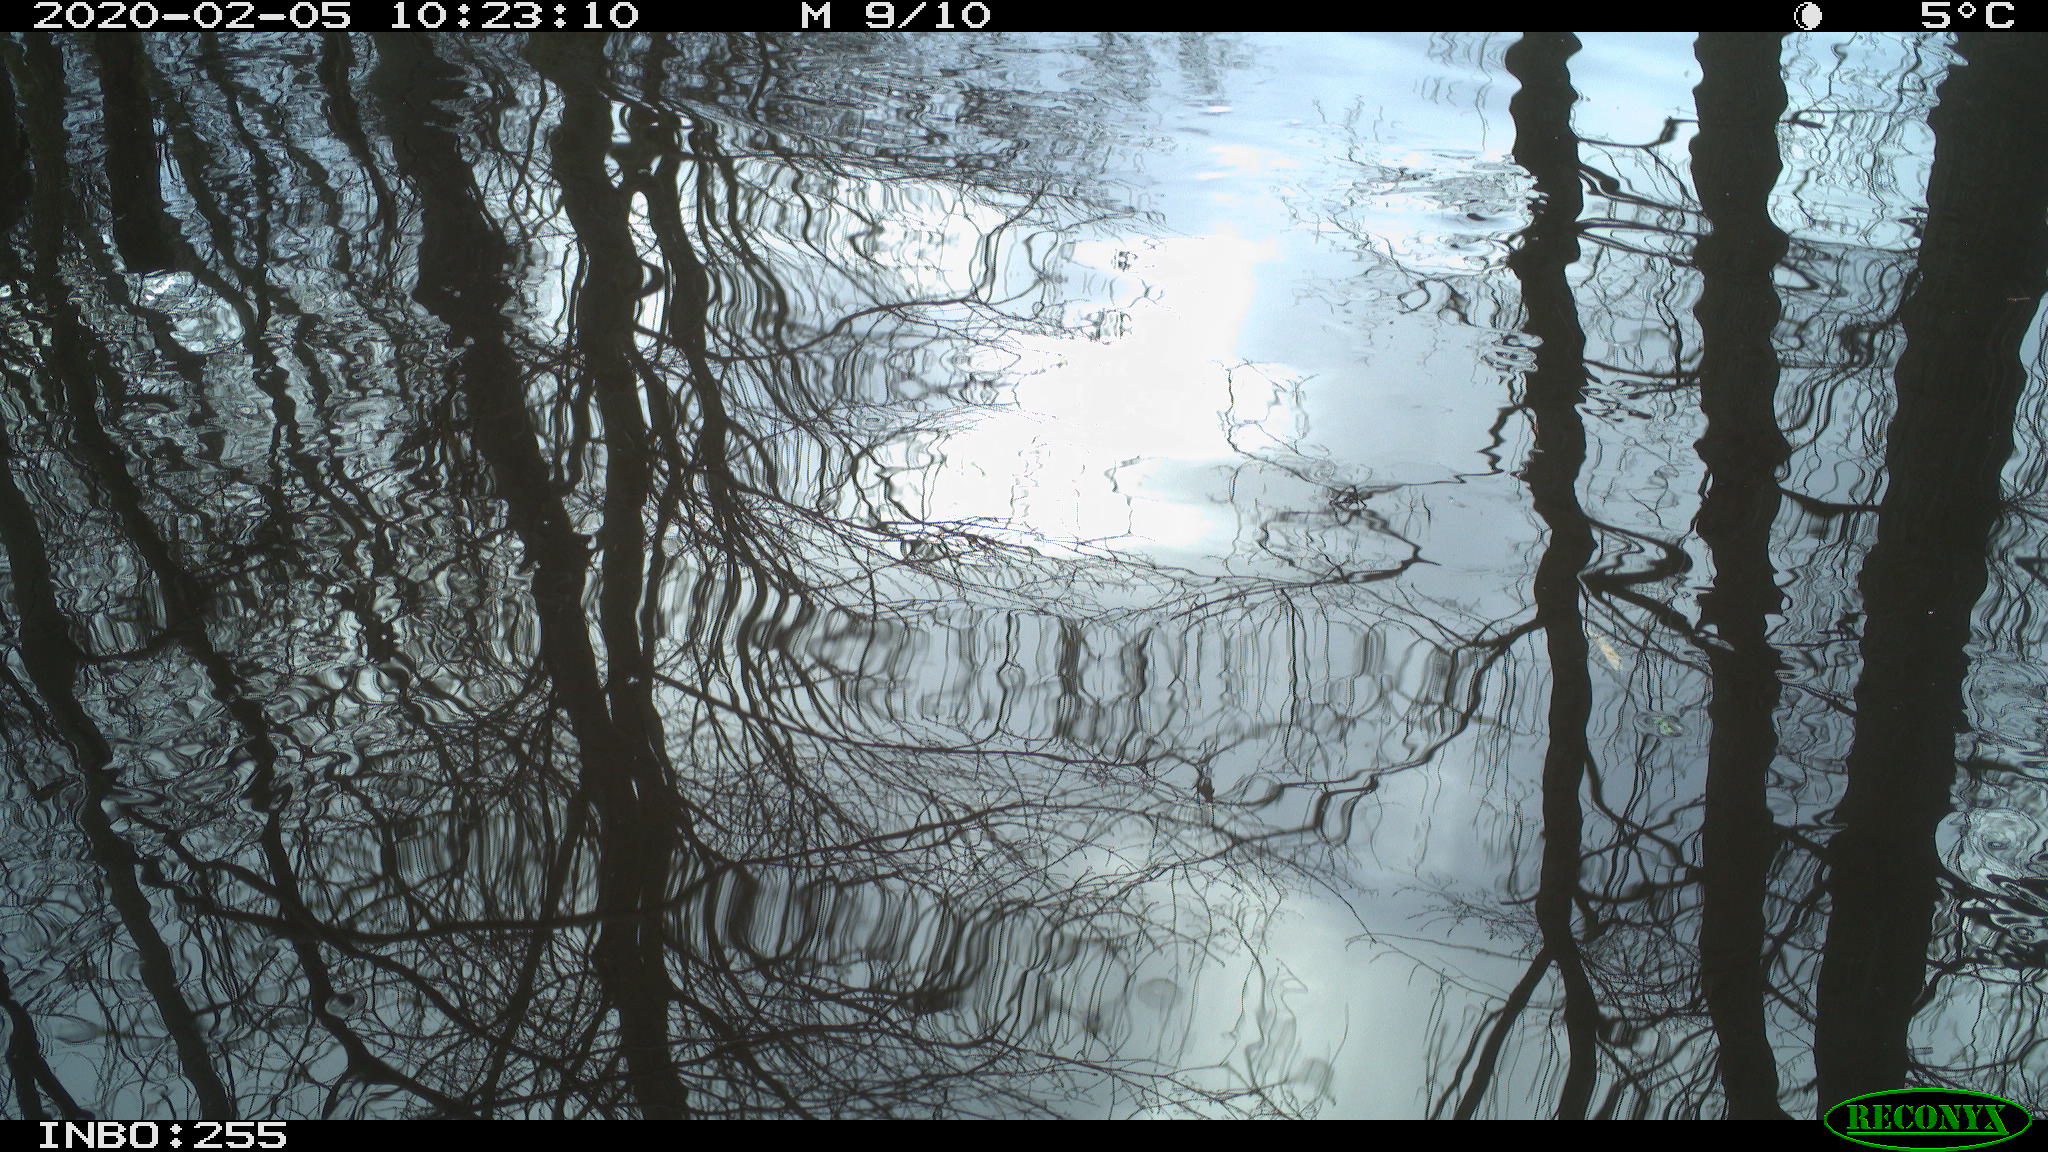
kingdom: Animalia
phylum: Chordata
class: Aves
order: Gruiformes
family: Rallidae
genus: Fulica
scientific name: Fulica atra
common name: Eurasian coot
